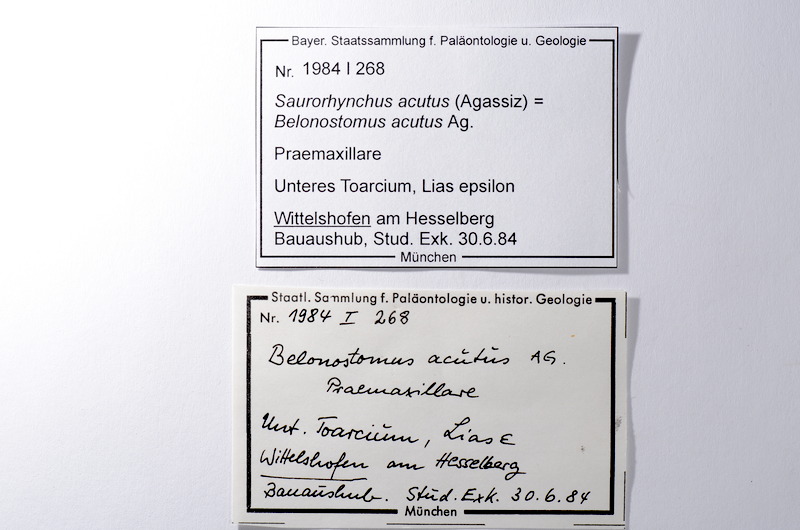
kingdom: Animalia
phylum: Chordata
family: Saurichthyidae
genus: Saurorhynchus
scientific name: Saurorhynchus acutus
